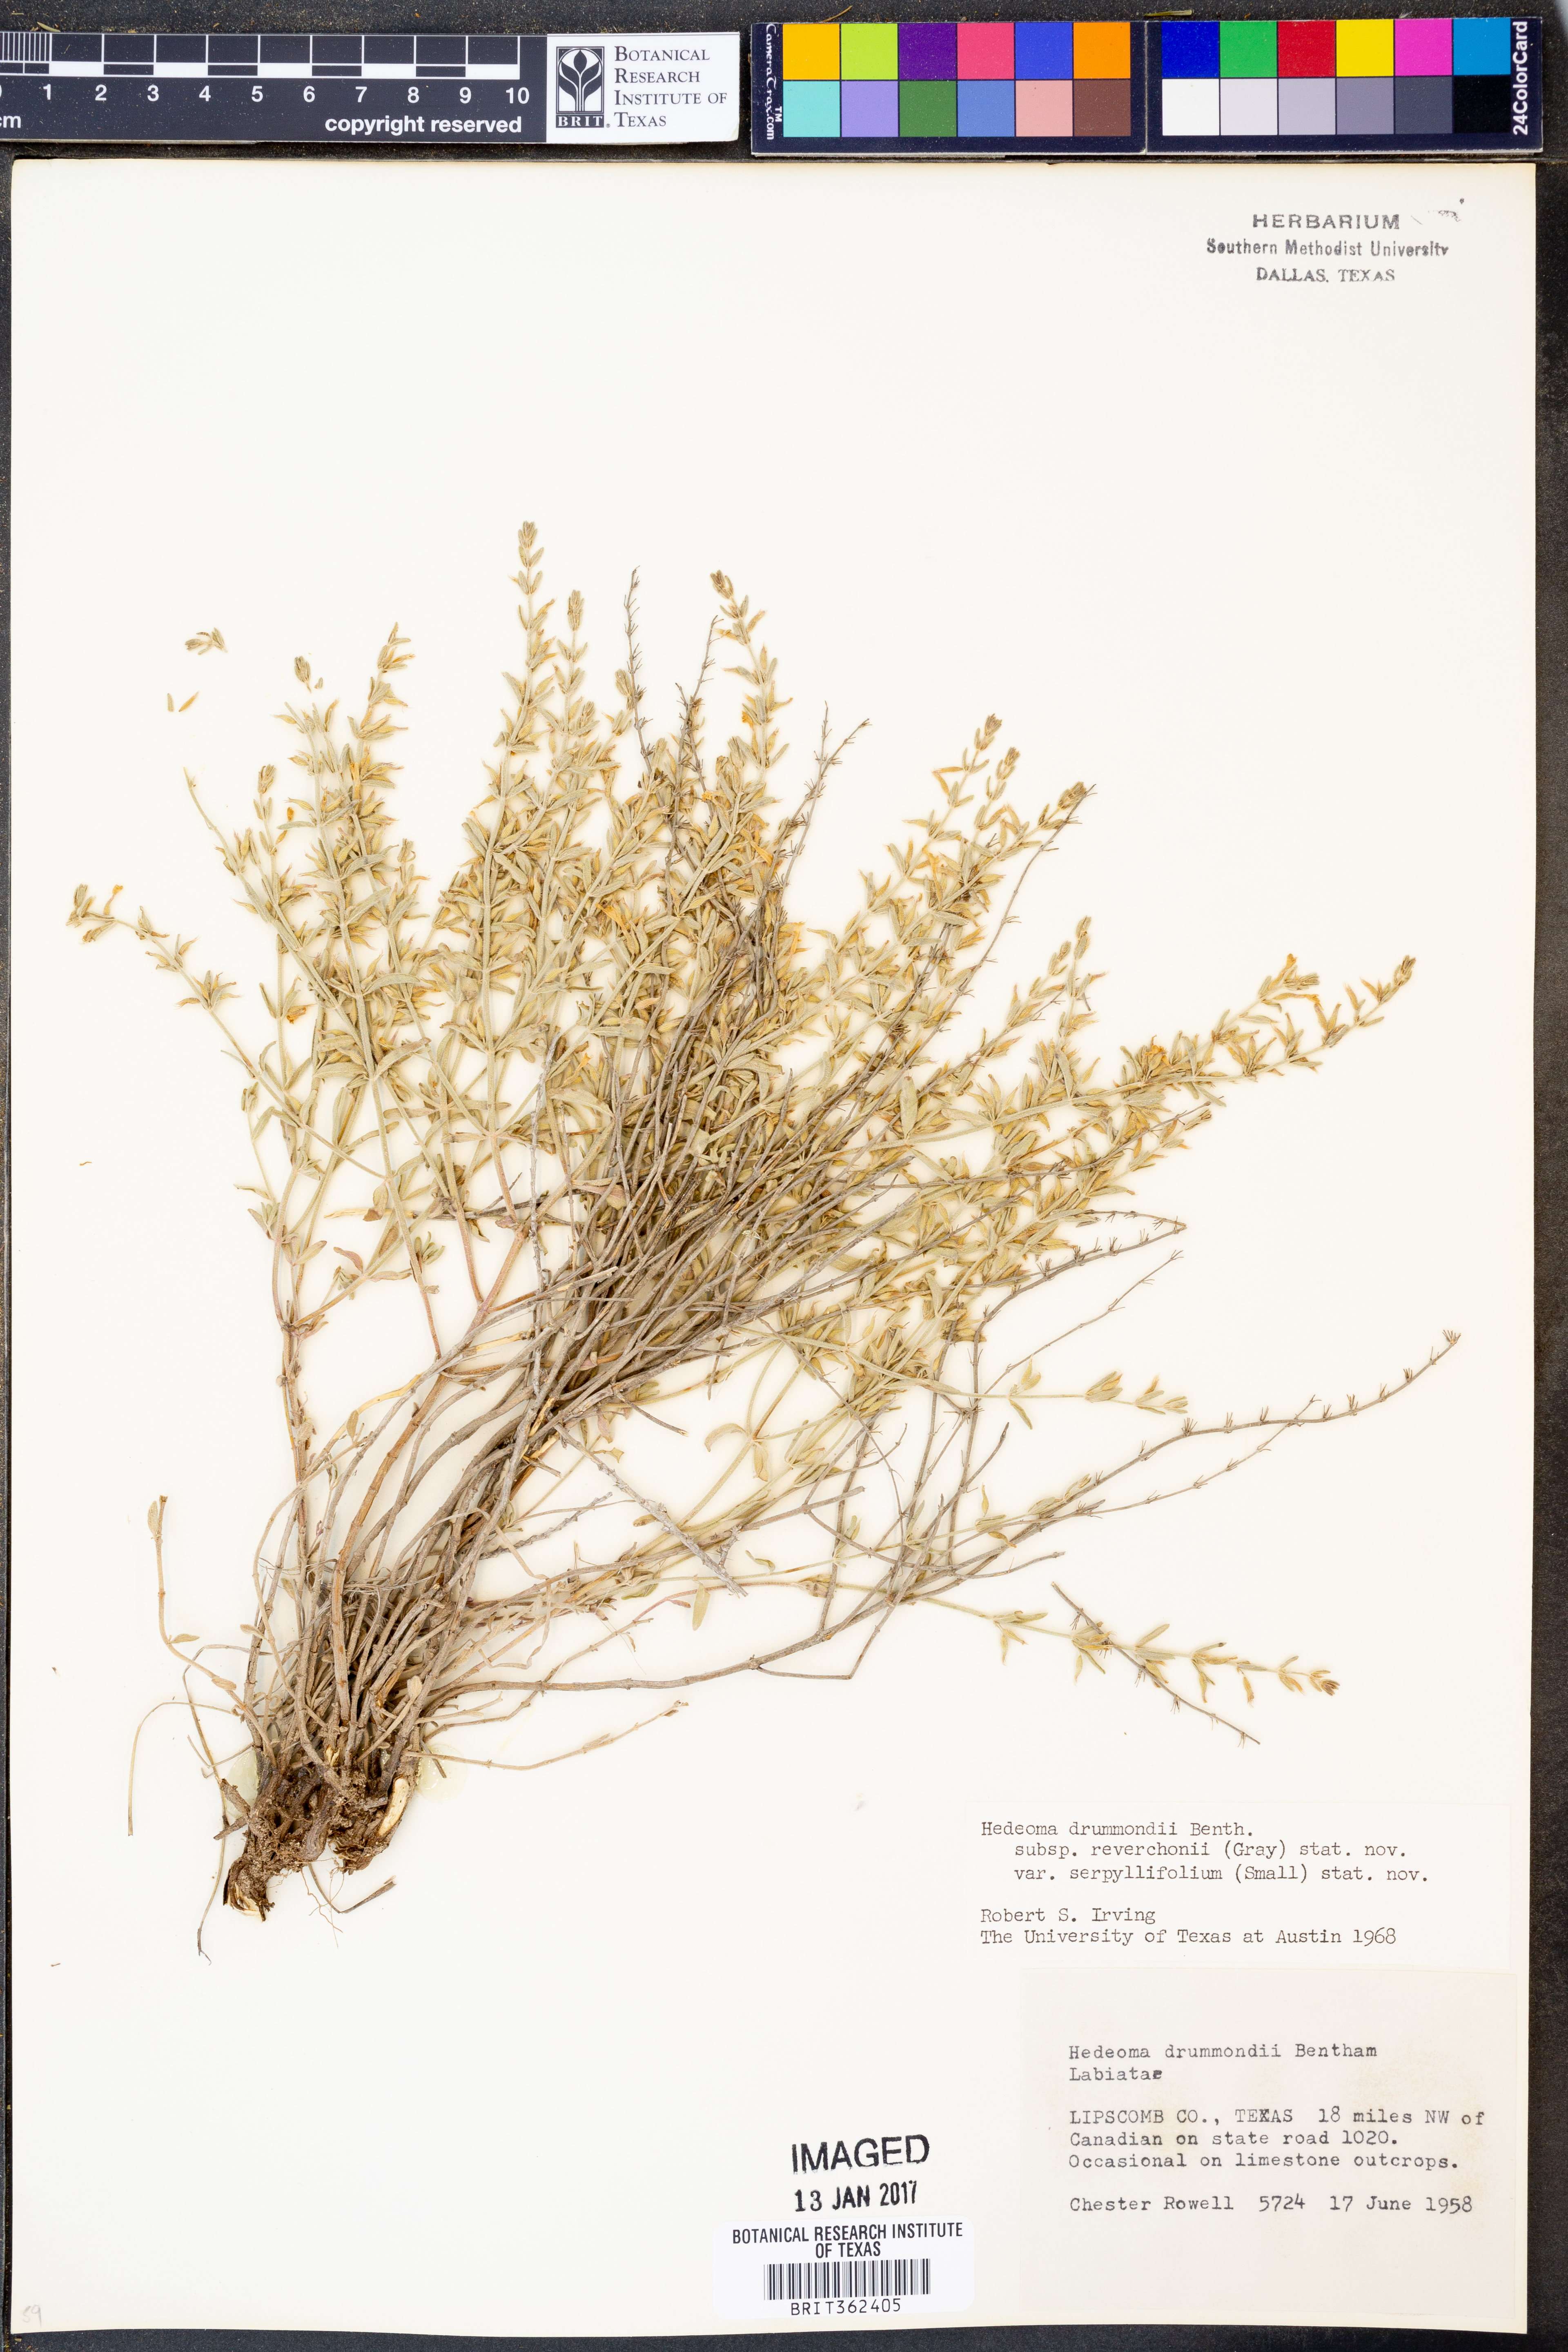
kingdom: Plantae
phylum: Tracheophyta
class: Magnoliopsida
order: Lamiales
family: Lamiaceae
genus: Hedeoma
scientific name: Hedeoma reverchonii
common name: Reverchon's false penny-royal
